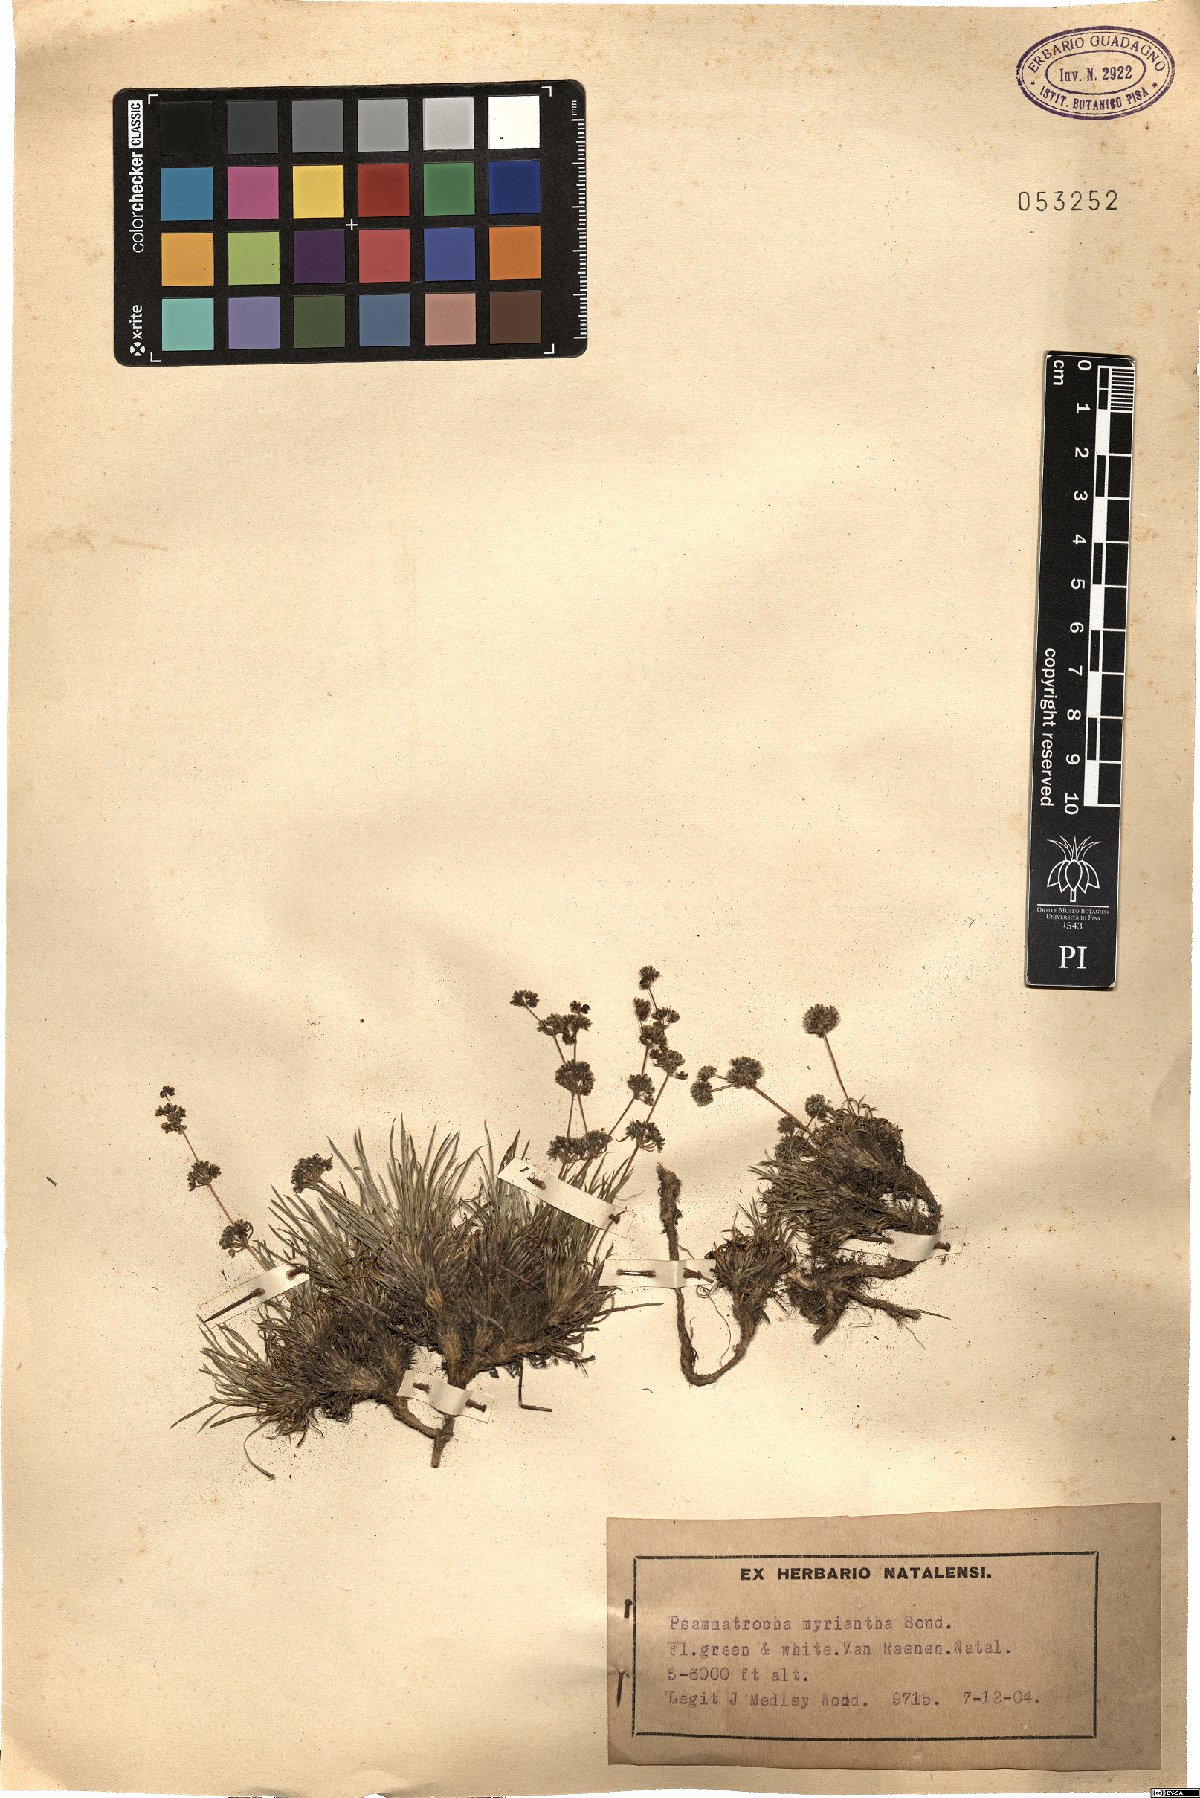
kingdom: Plantae
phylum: Tracheophyta
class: Magnoliopsida
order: Caryophyllales
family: Molluginaceae
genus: Psammotropha
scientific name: Psammotropha myriantha
